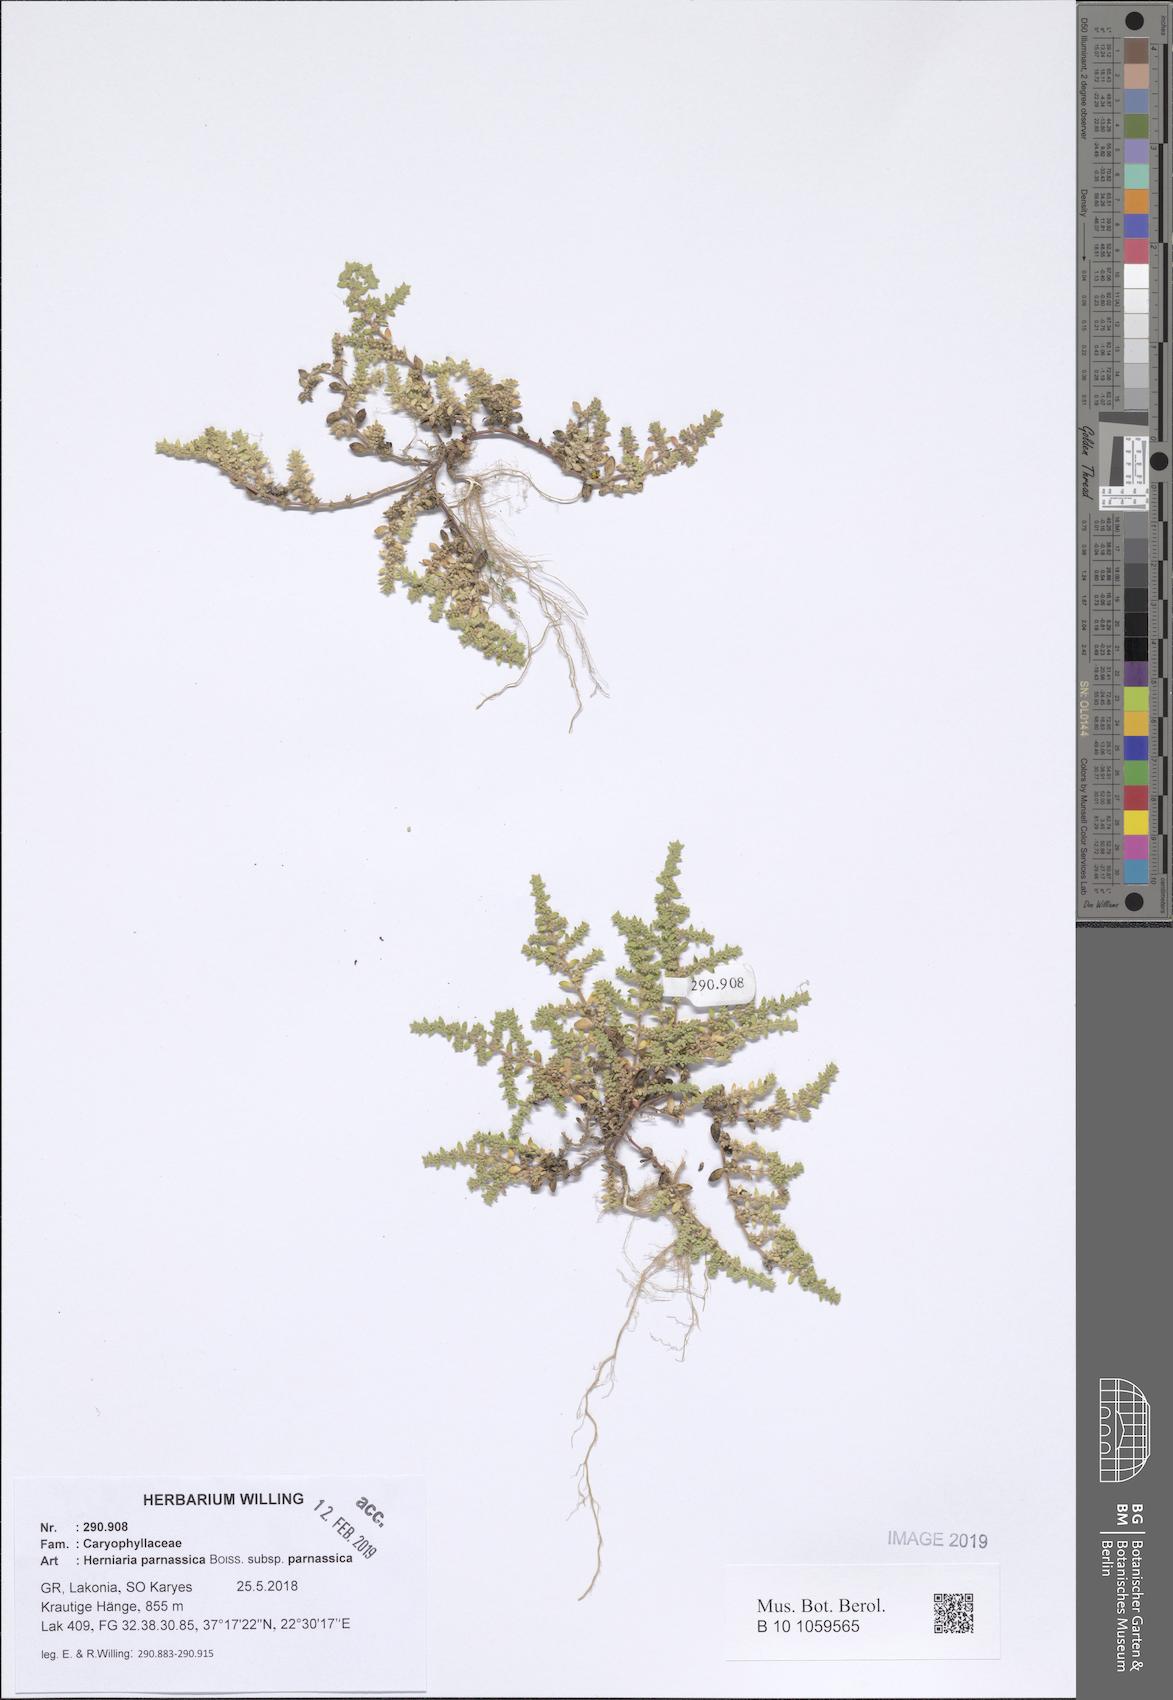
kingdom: Plantae
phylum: Tracheophyta
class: Magnoliopsida
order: Caryophyllales
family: Caryophyllaceae
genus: Herniaria
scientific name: Herniaria parnassica
